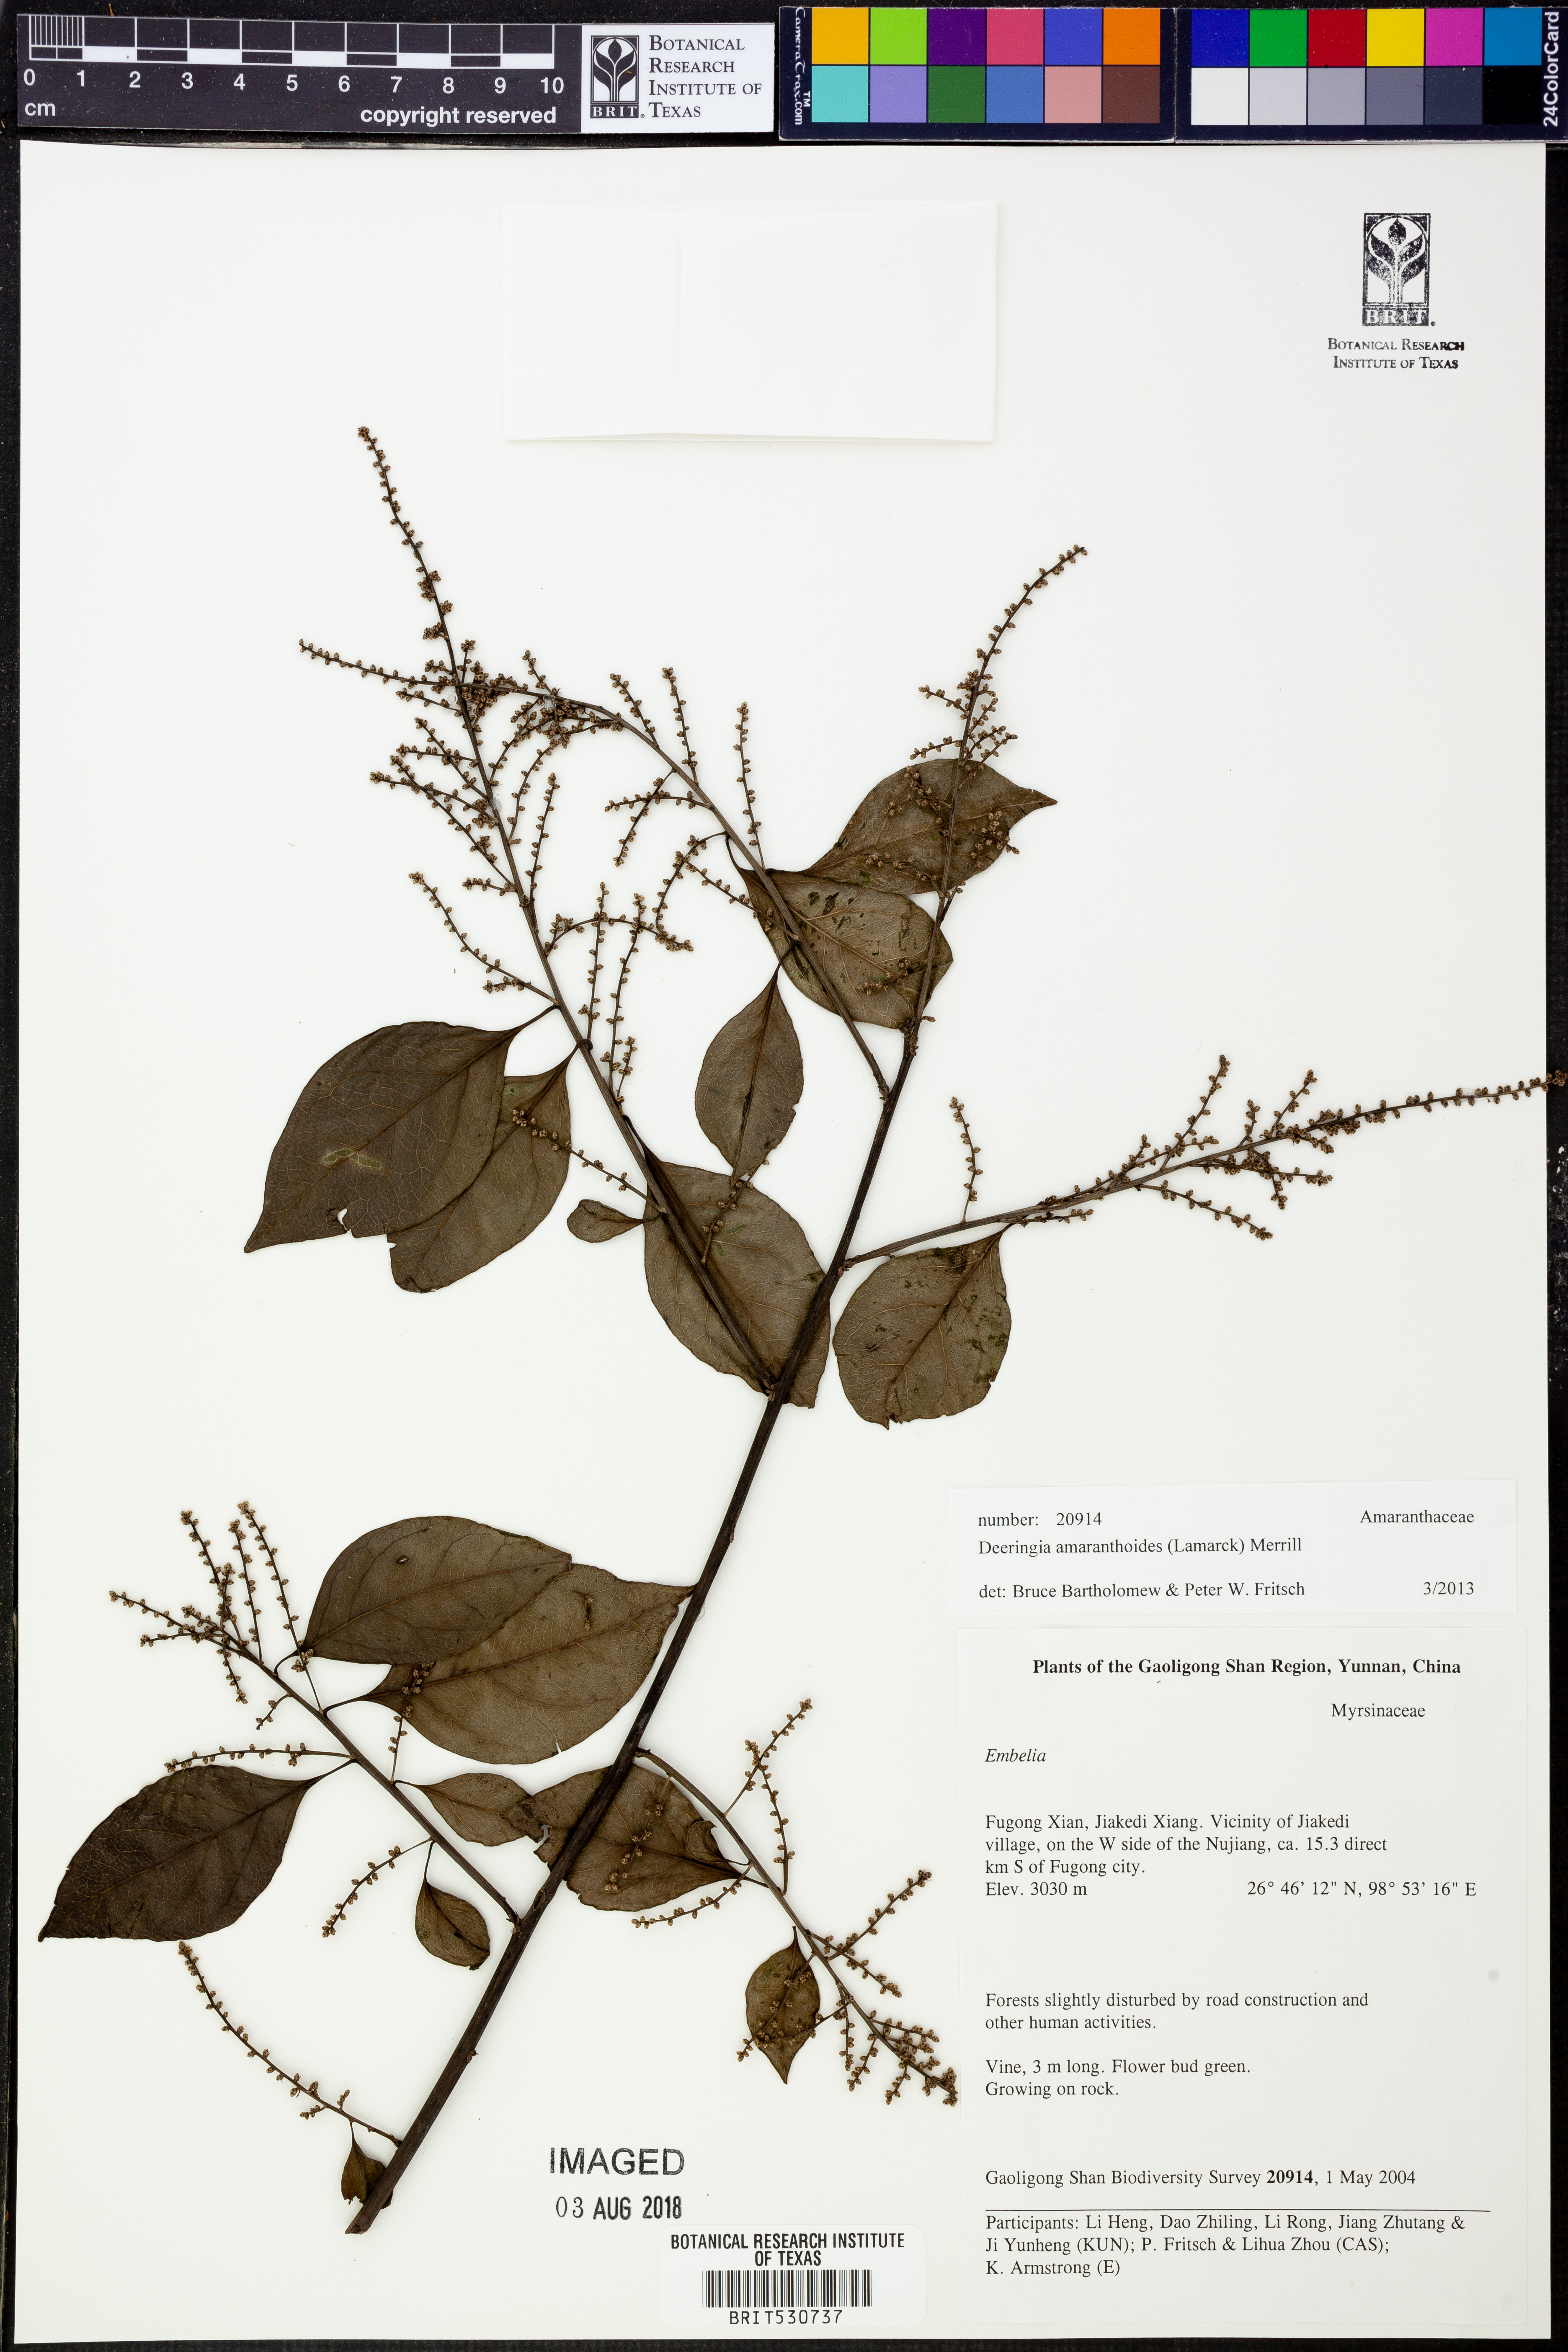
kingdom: Plantae
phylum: Tracheophyta
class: Magnoliopsida
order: Caryophyllales
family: Amaranthaceae
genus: Deeringia
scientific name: Deeringia amaranthoides
